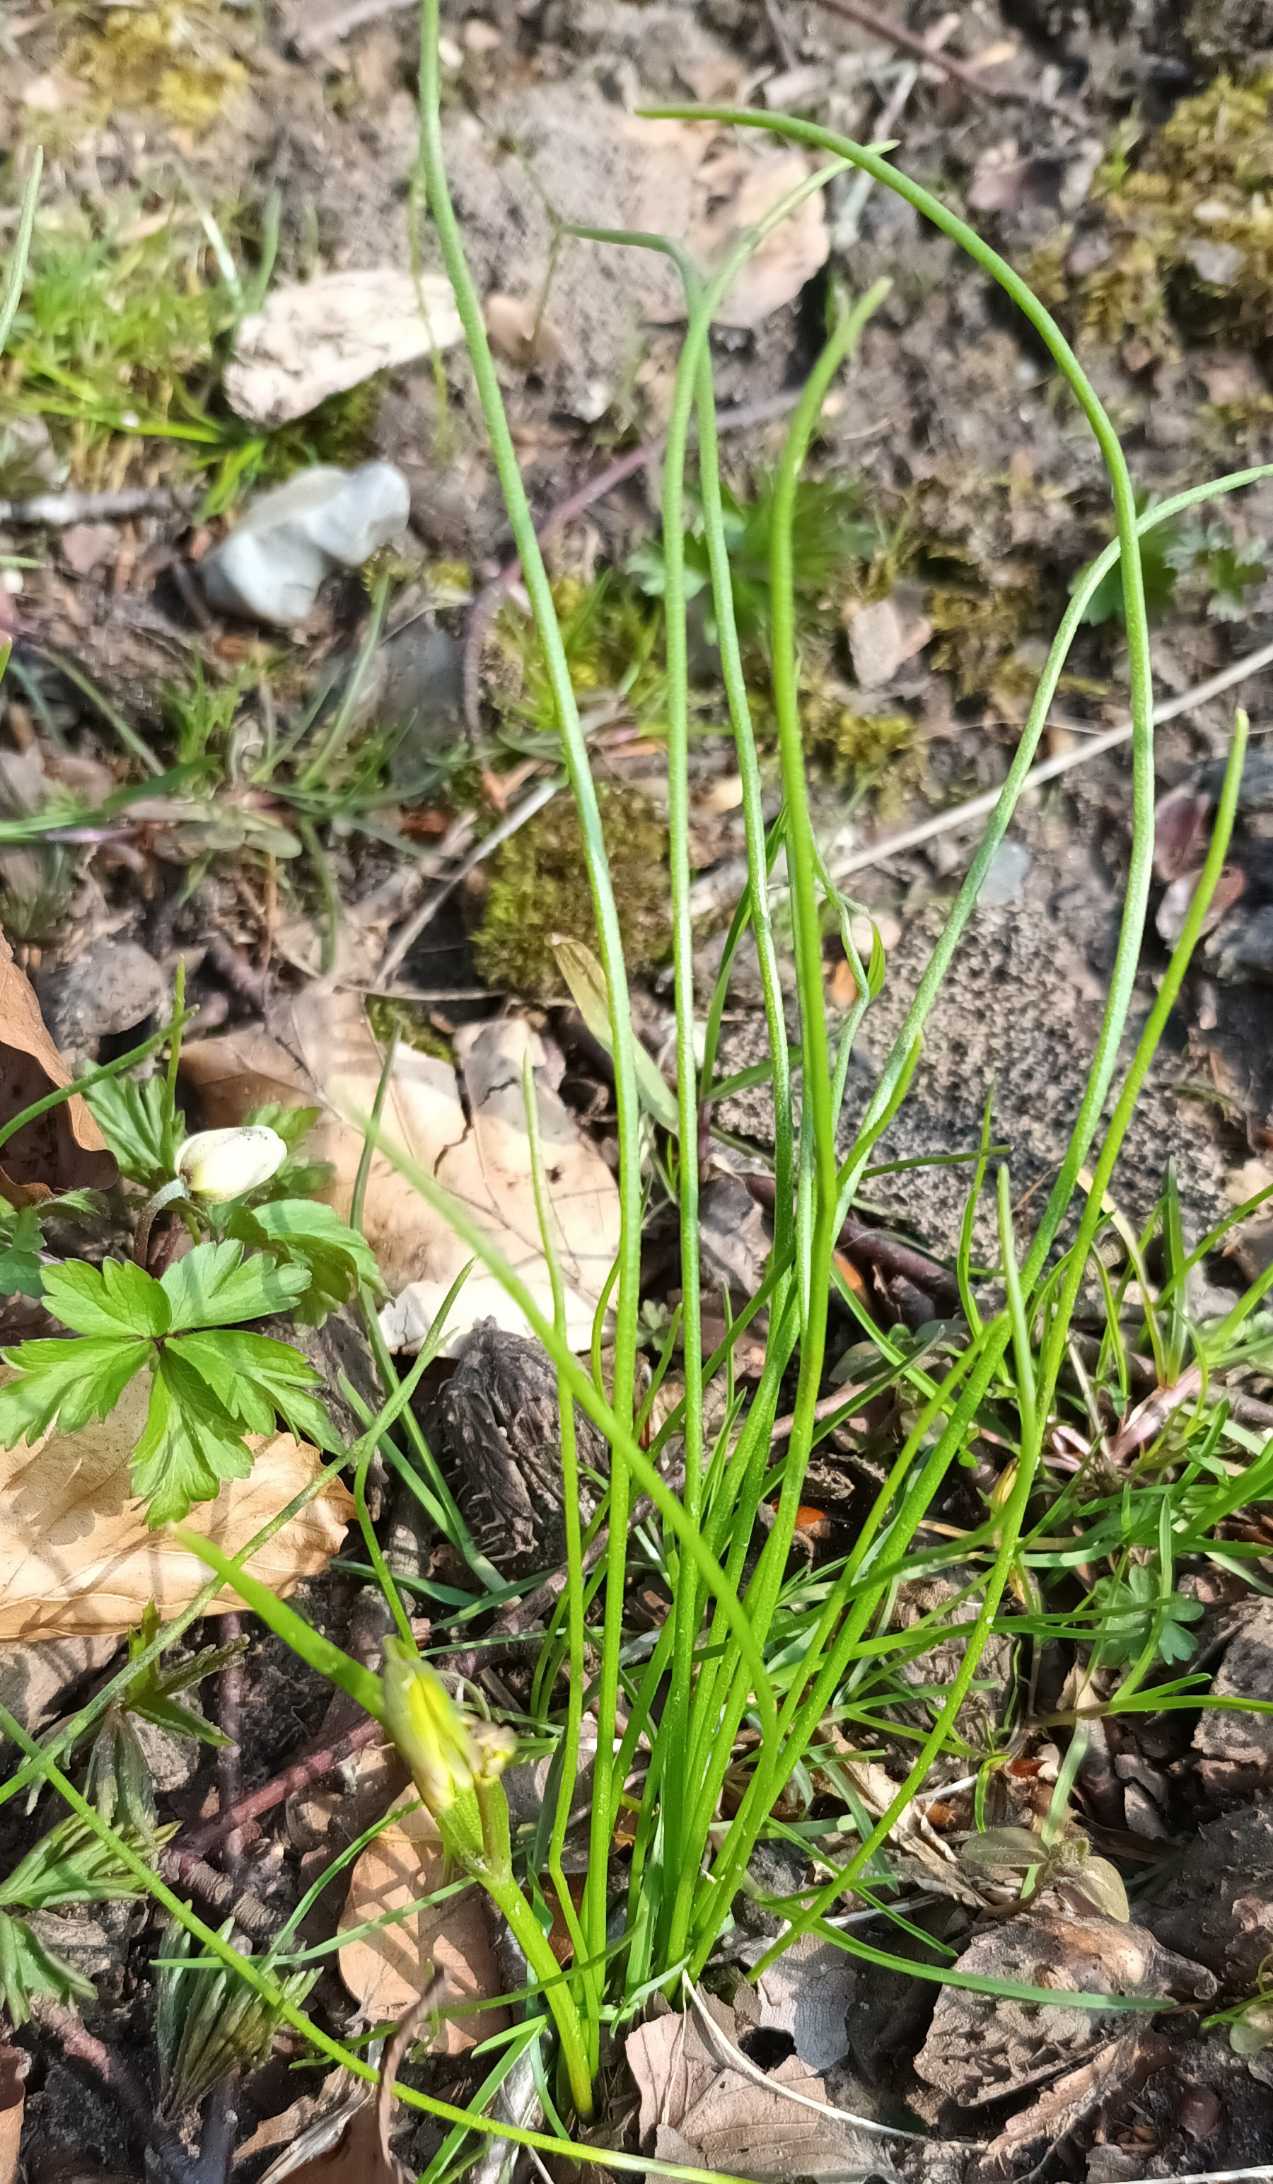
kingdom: Plantae
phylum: Tracheophyta
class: Liliopsida
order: Liliales
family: Liliaceae
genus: Gagea
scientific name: Gagea spathacea
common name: Hylster-guldstjerne
